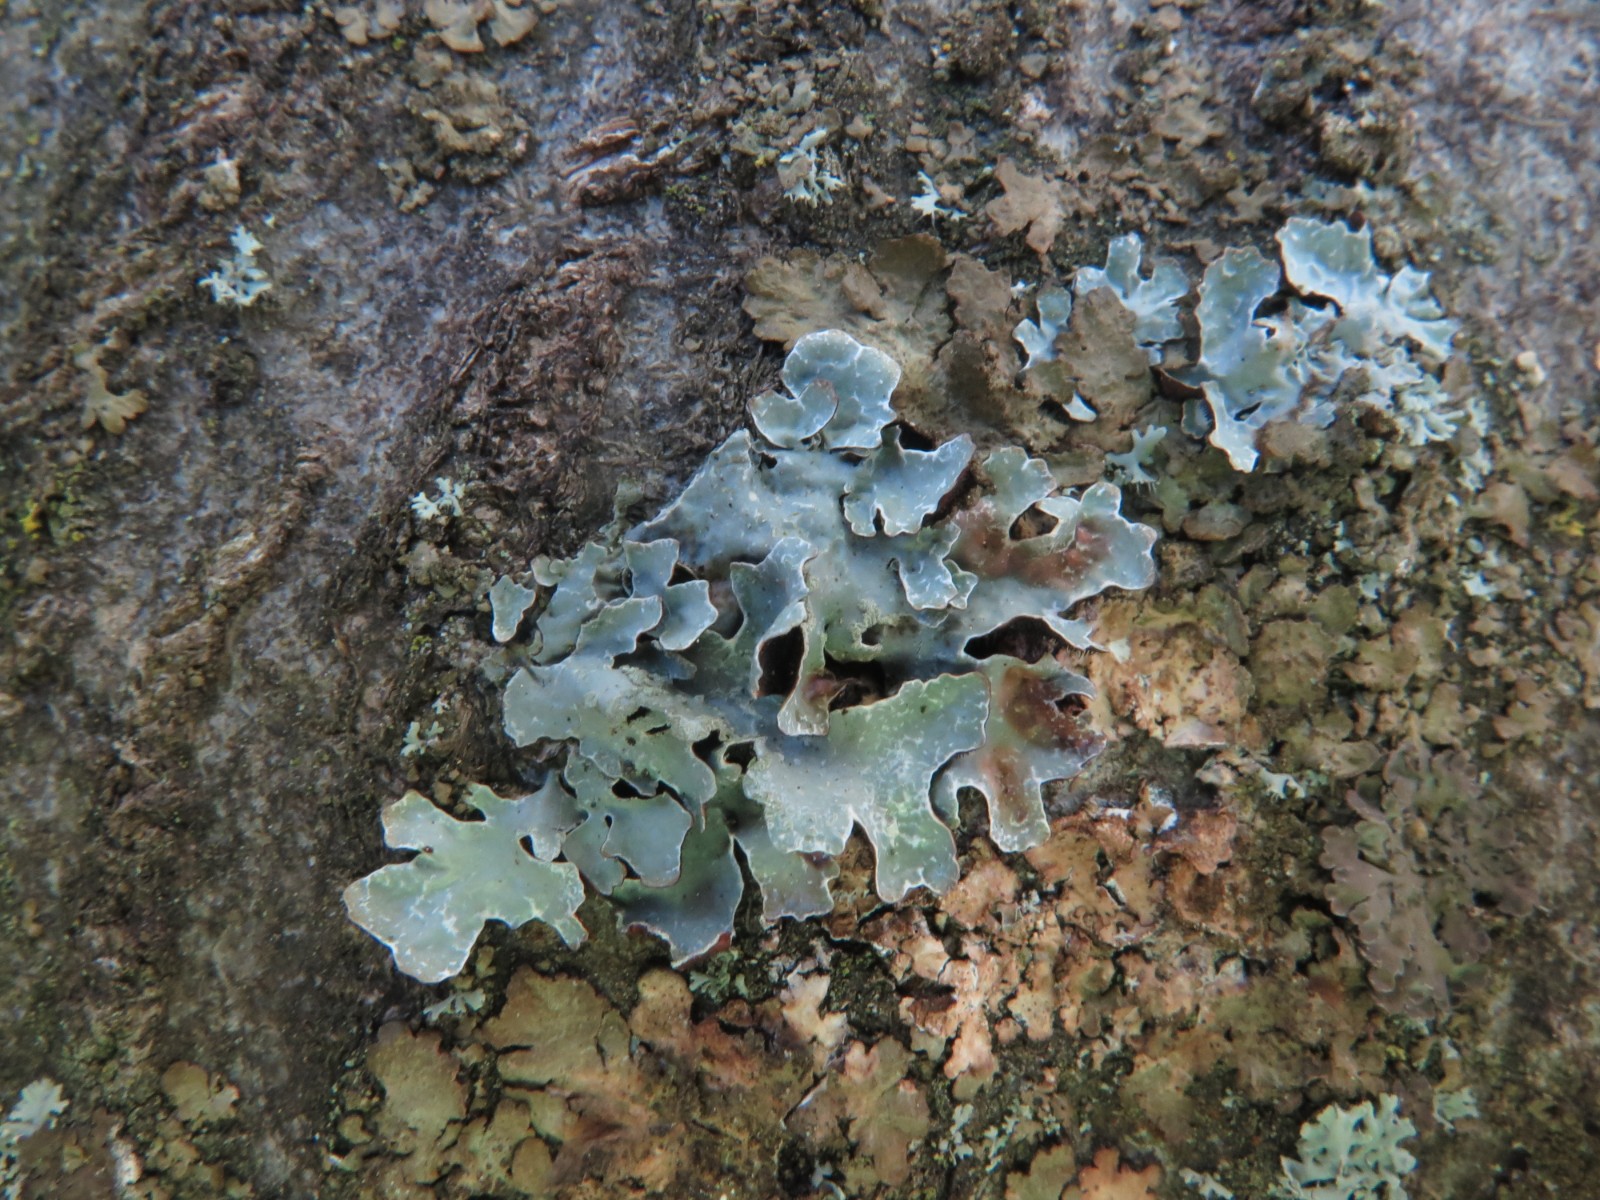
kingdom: Fungi
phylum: Ascomycota
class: Lecanoromycetes
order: Lecanorales
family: Parmeliaceae
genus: Parmelia
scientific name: Parmelia sulcata
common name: rynket skållav
